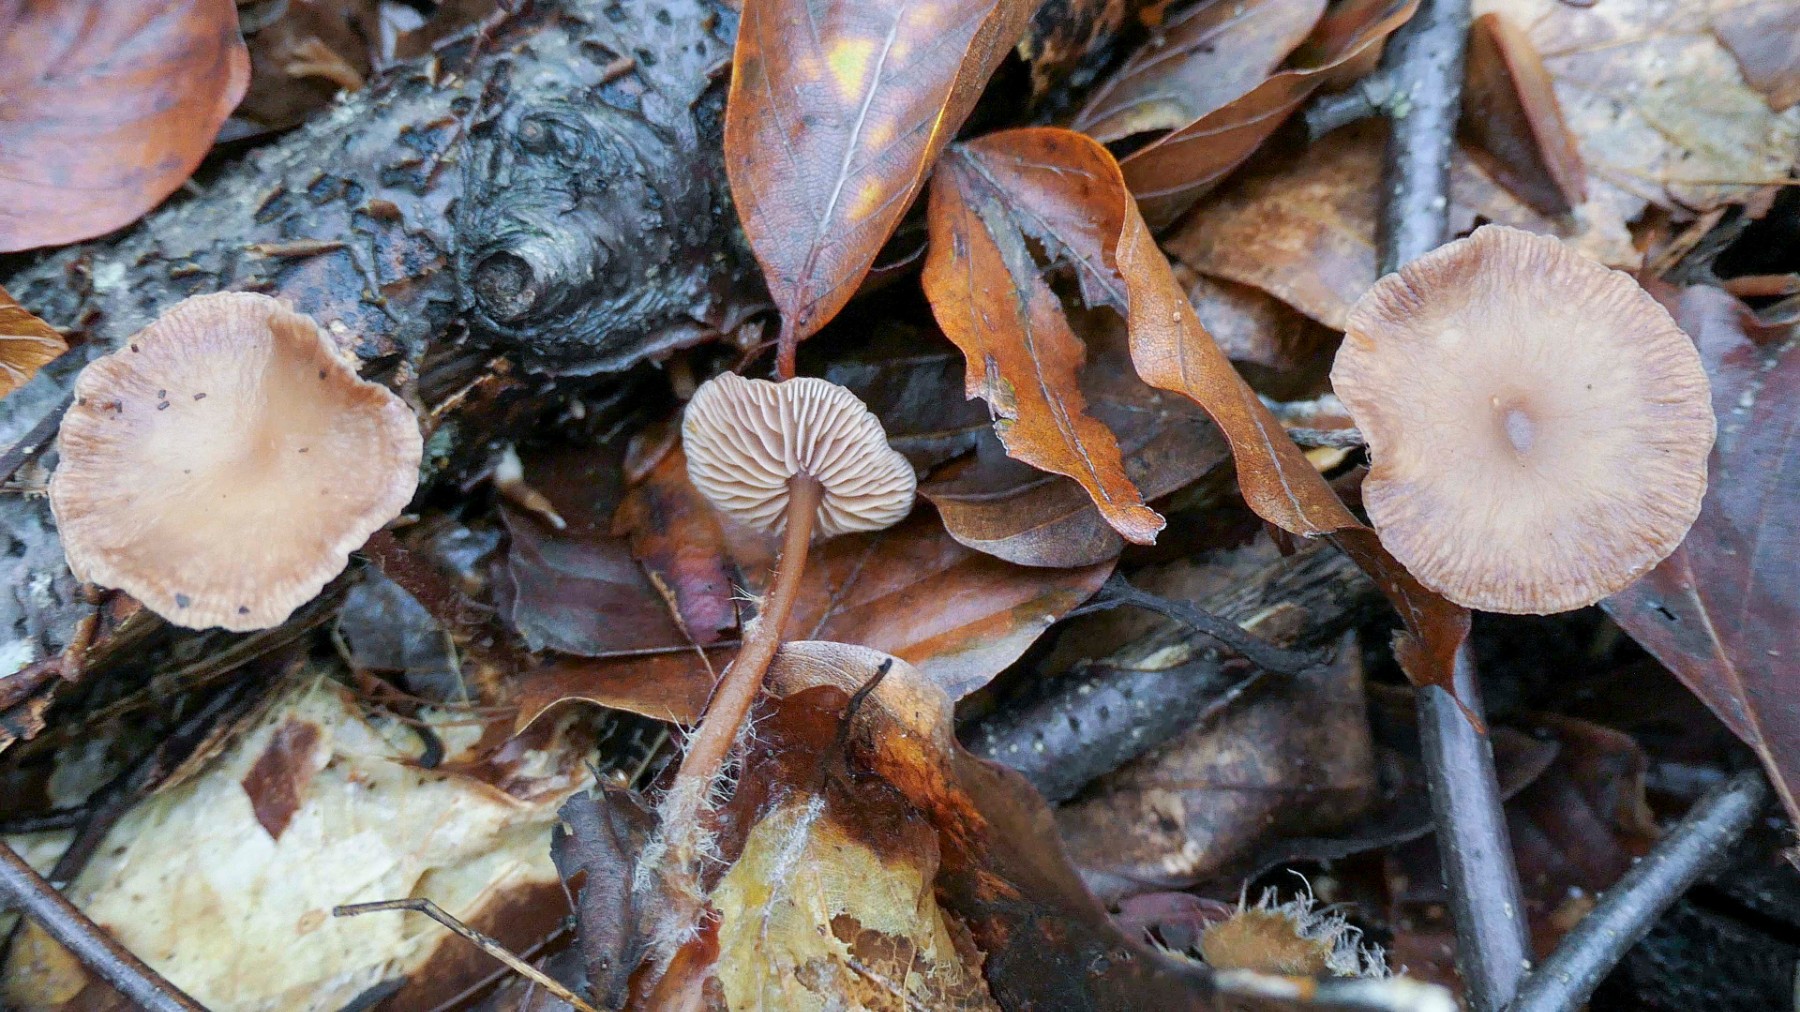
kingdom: Fungi
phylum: Basidiomycota
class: Agaricomycetes
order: Agaricales
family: Omphalotaceae
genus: Gymnopus
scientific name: Gymnopus fagiphilus
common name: bøgeløv-fladhat
